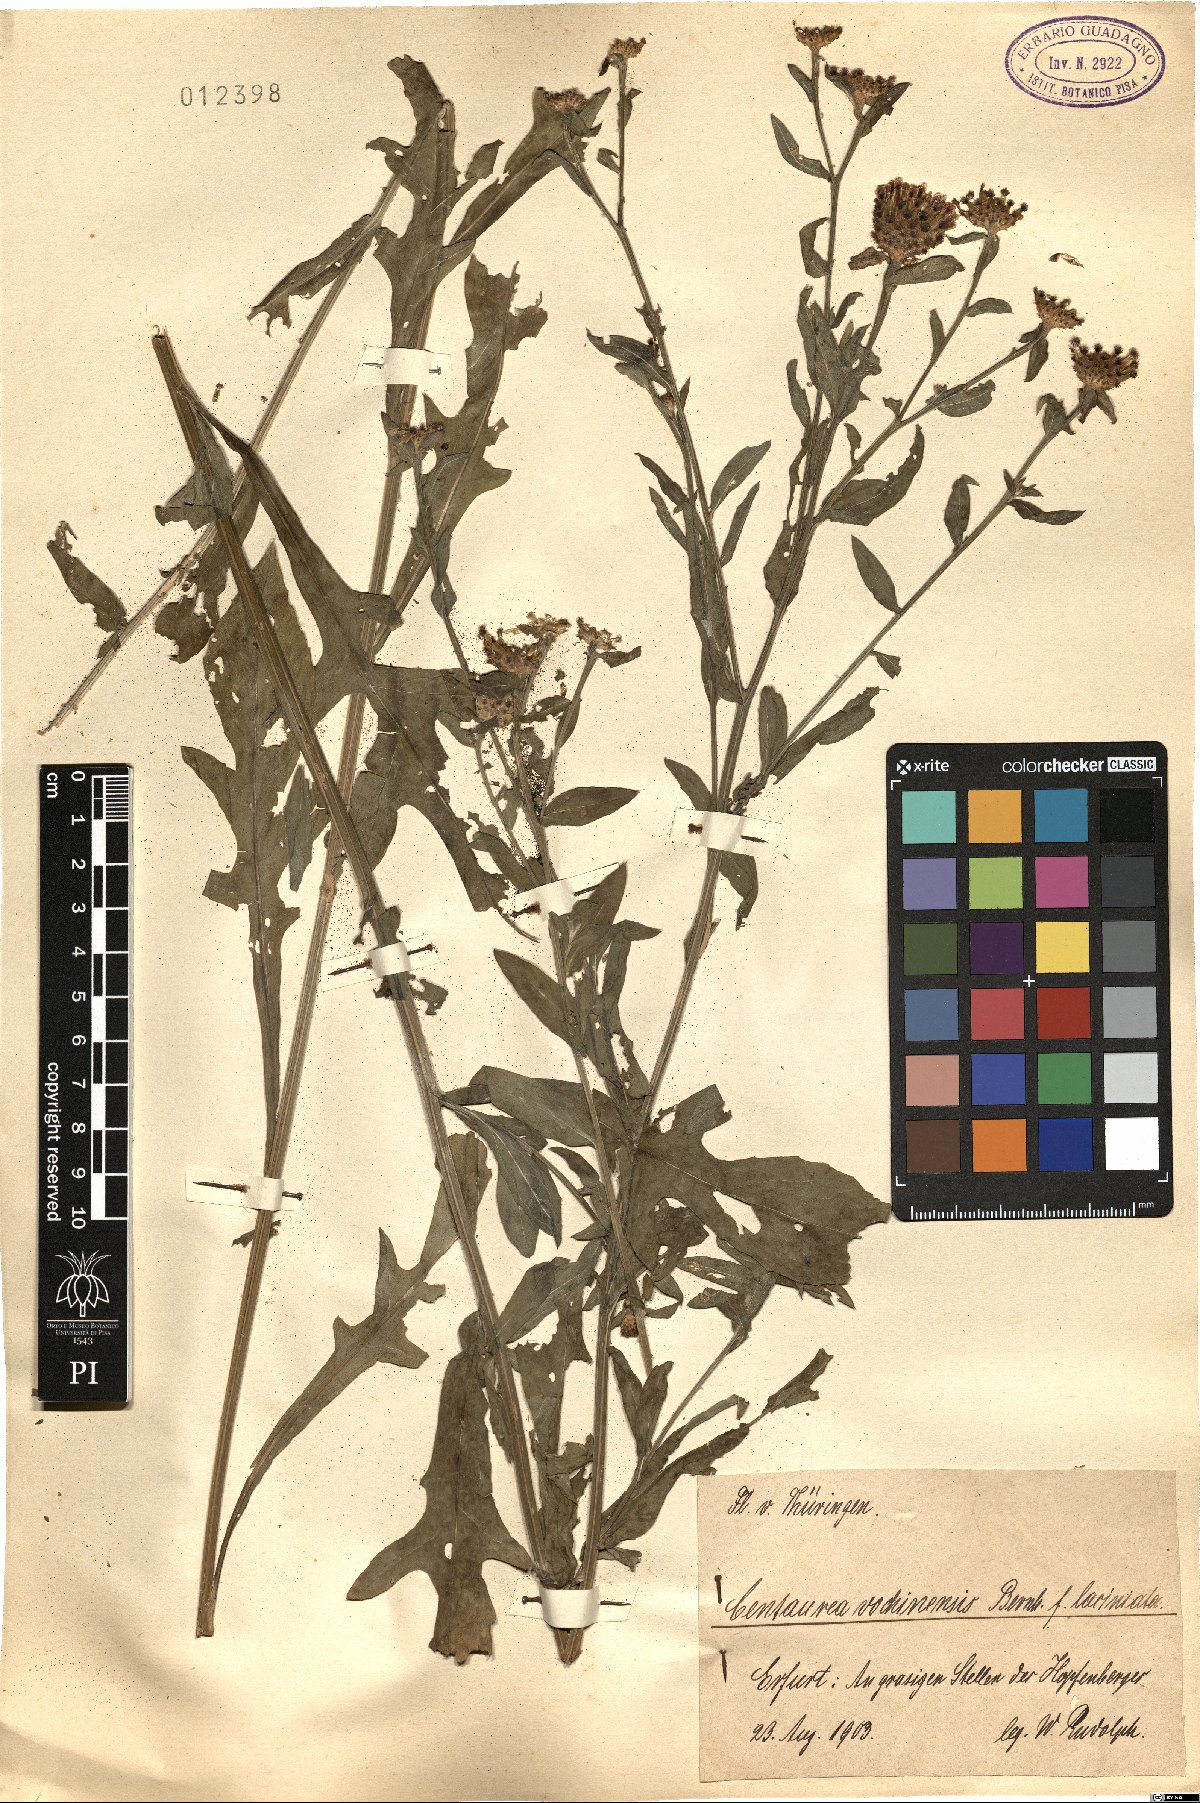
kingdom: Plantae
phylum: Tracheophyta
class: Magnoliopsida
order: Asterales
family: Asteraceae
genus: Centaurea
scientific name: Centaurea carniolica
